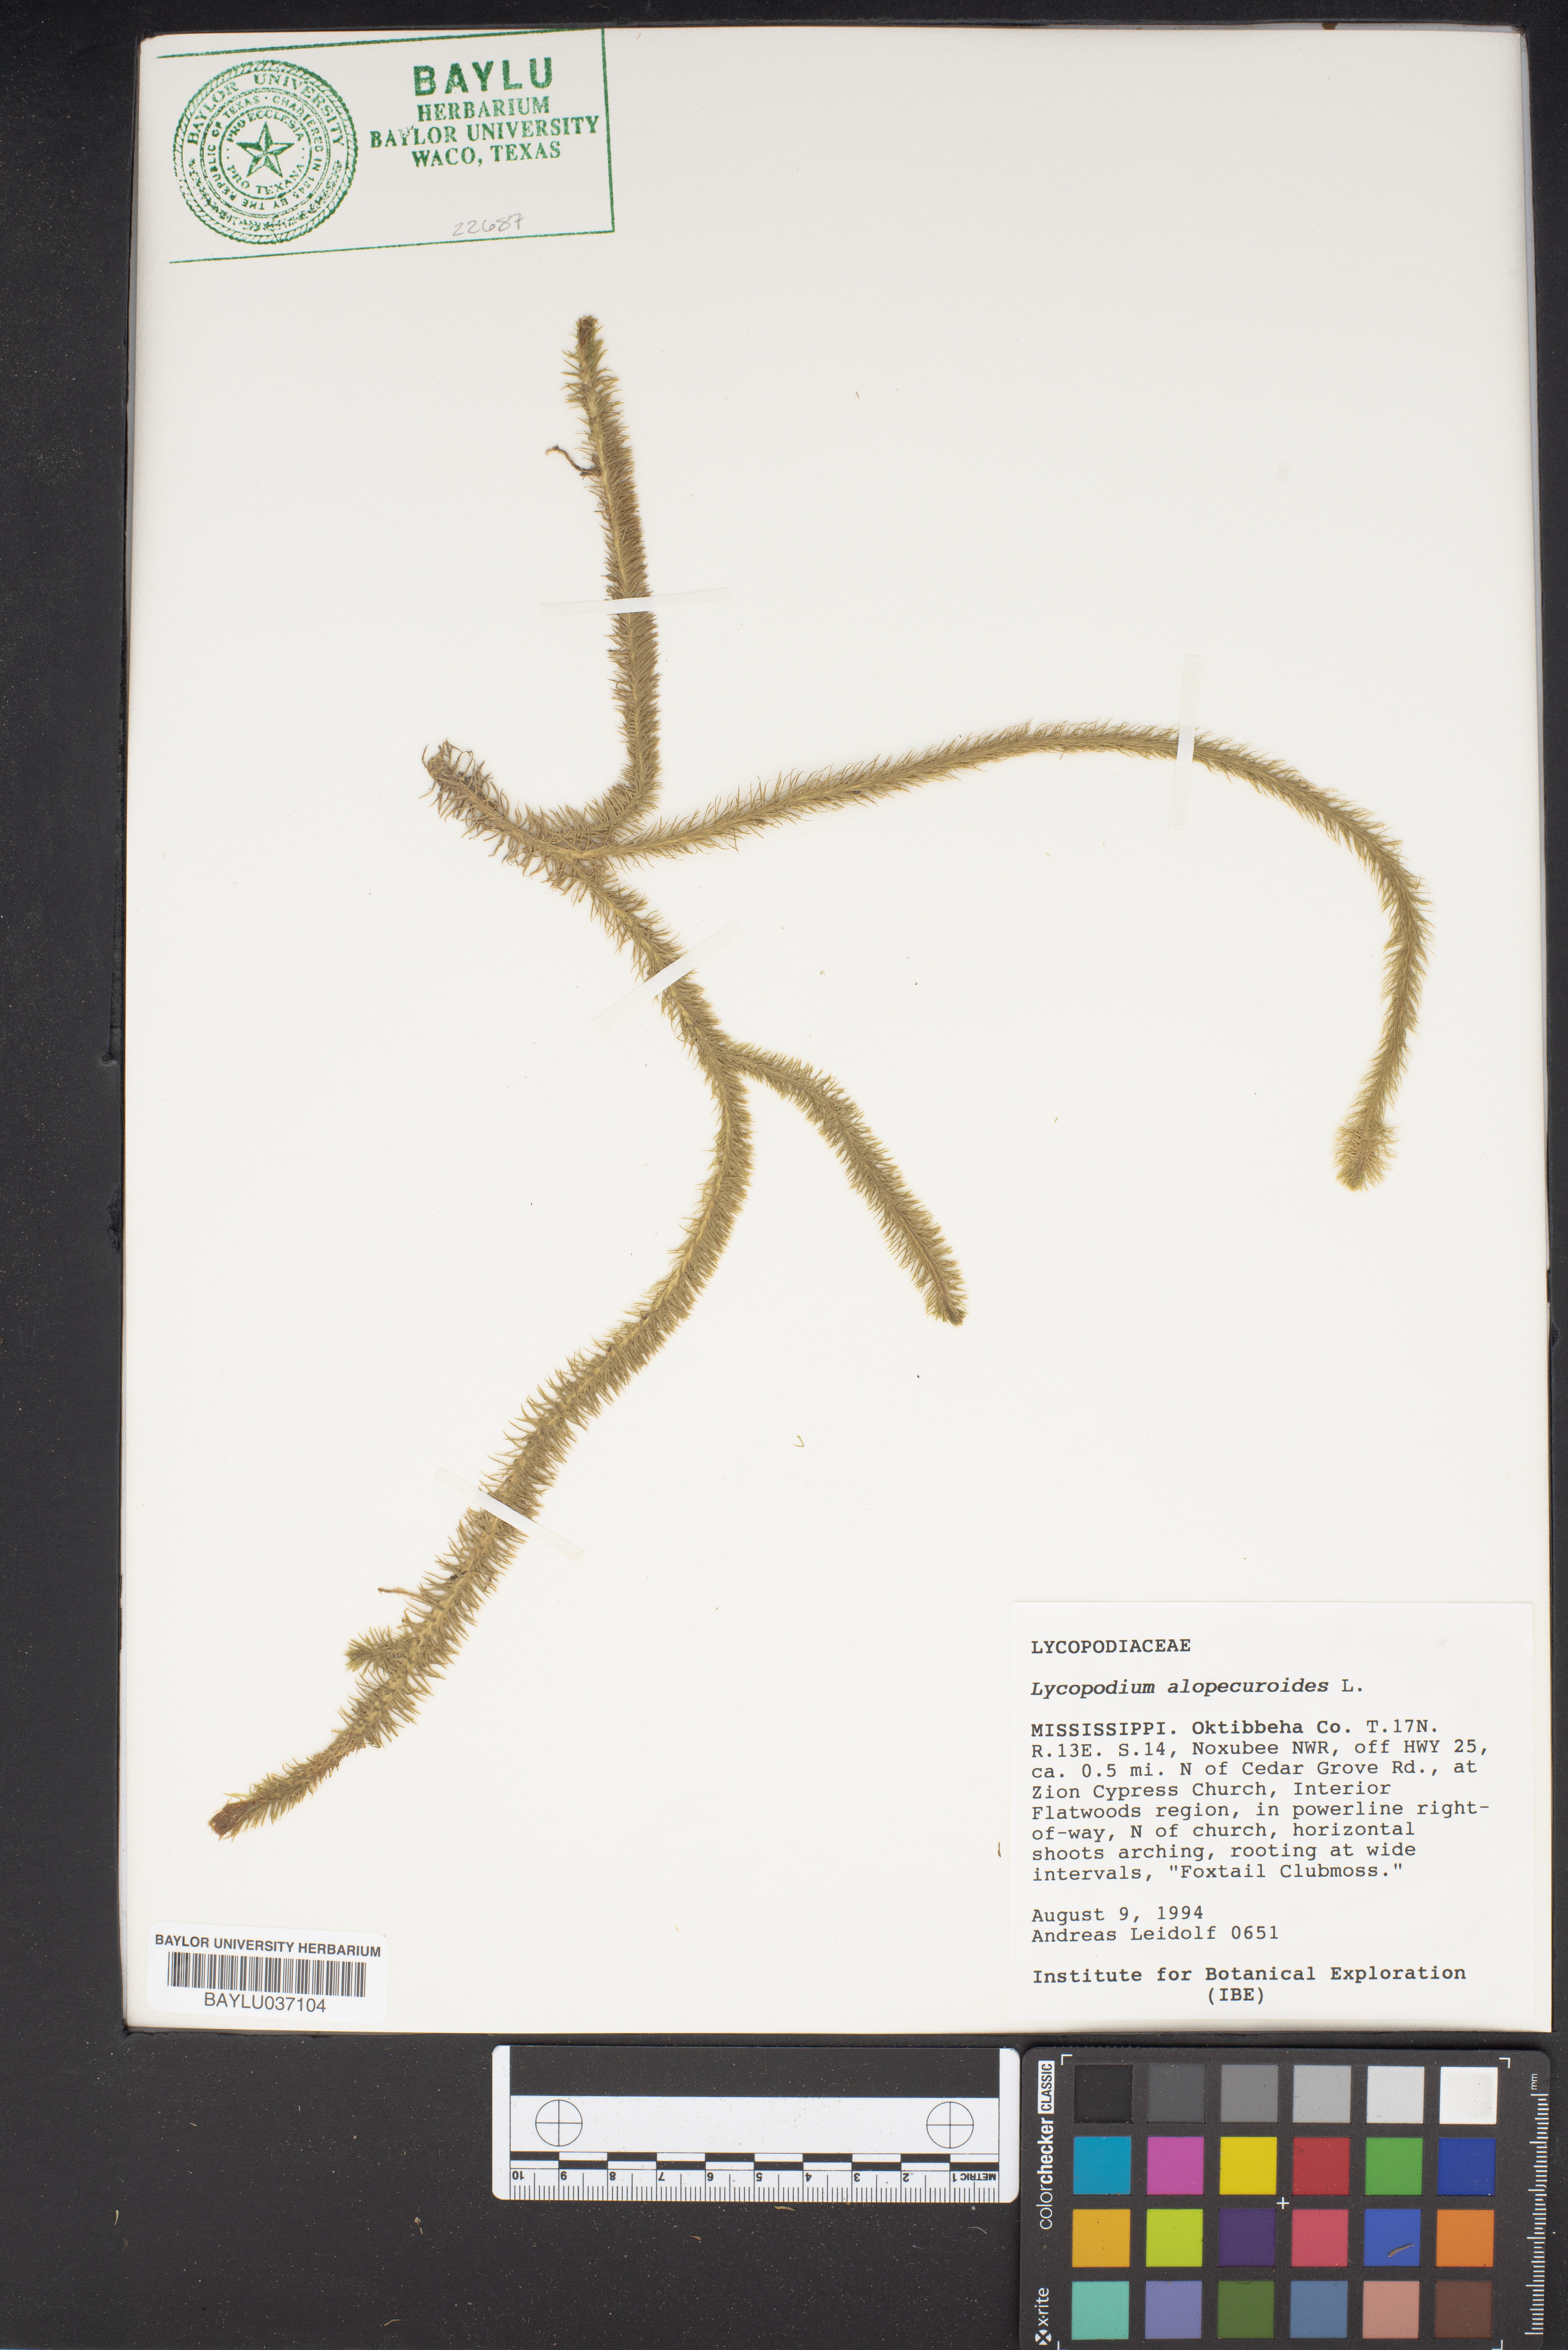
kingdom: Plantae
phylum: Tracheophyta
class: Lycopodiopsida
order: Lycopodiales
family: Lycopodiaceae
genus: Lycopodiella
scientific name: Lycopodiella alopecuroides
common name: Foxtail clubmoss
